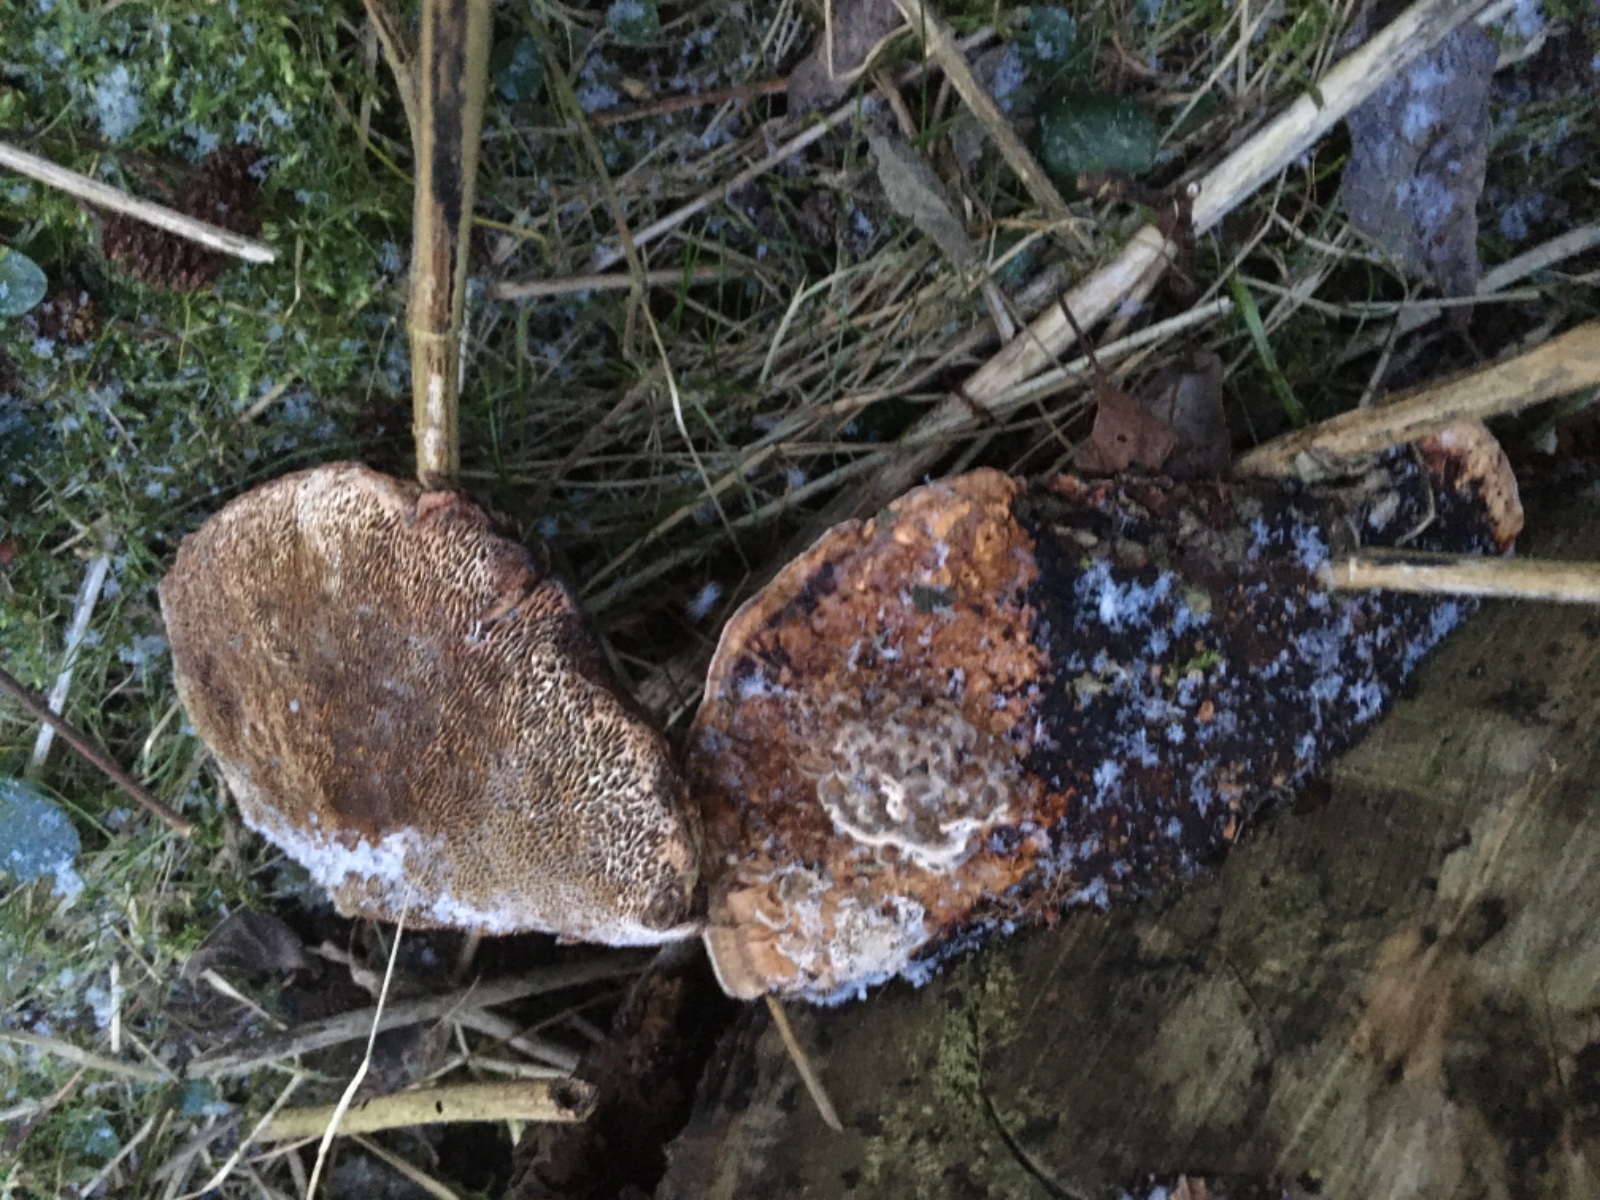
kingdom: Fungi
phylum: Basidiomycota
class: Agaricomycetes
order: Polyporales
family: Polyporaceae
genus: Daedaleopsis
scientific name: Daedaleopsis confragosa
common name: rødmende læderporesvamp
